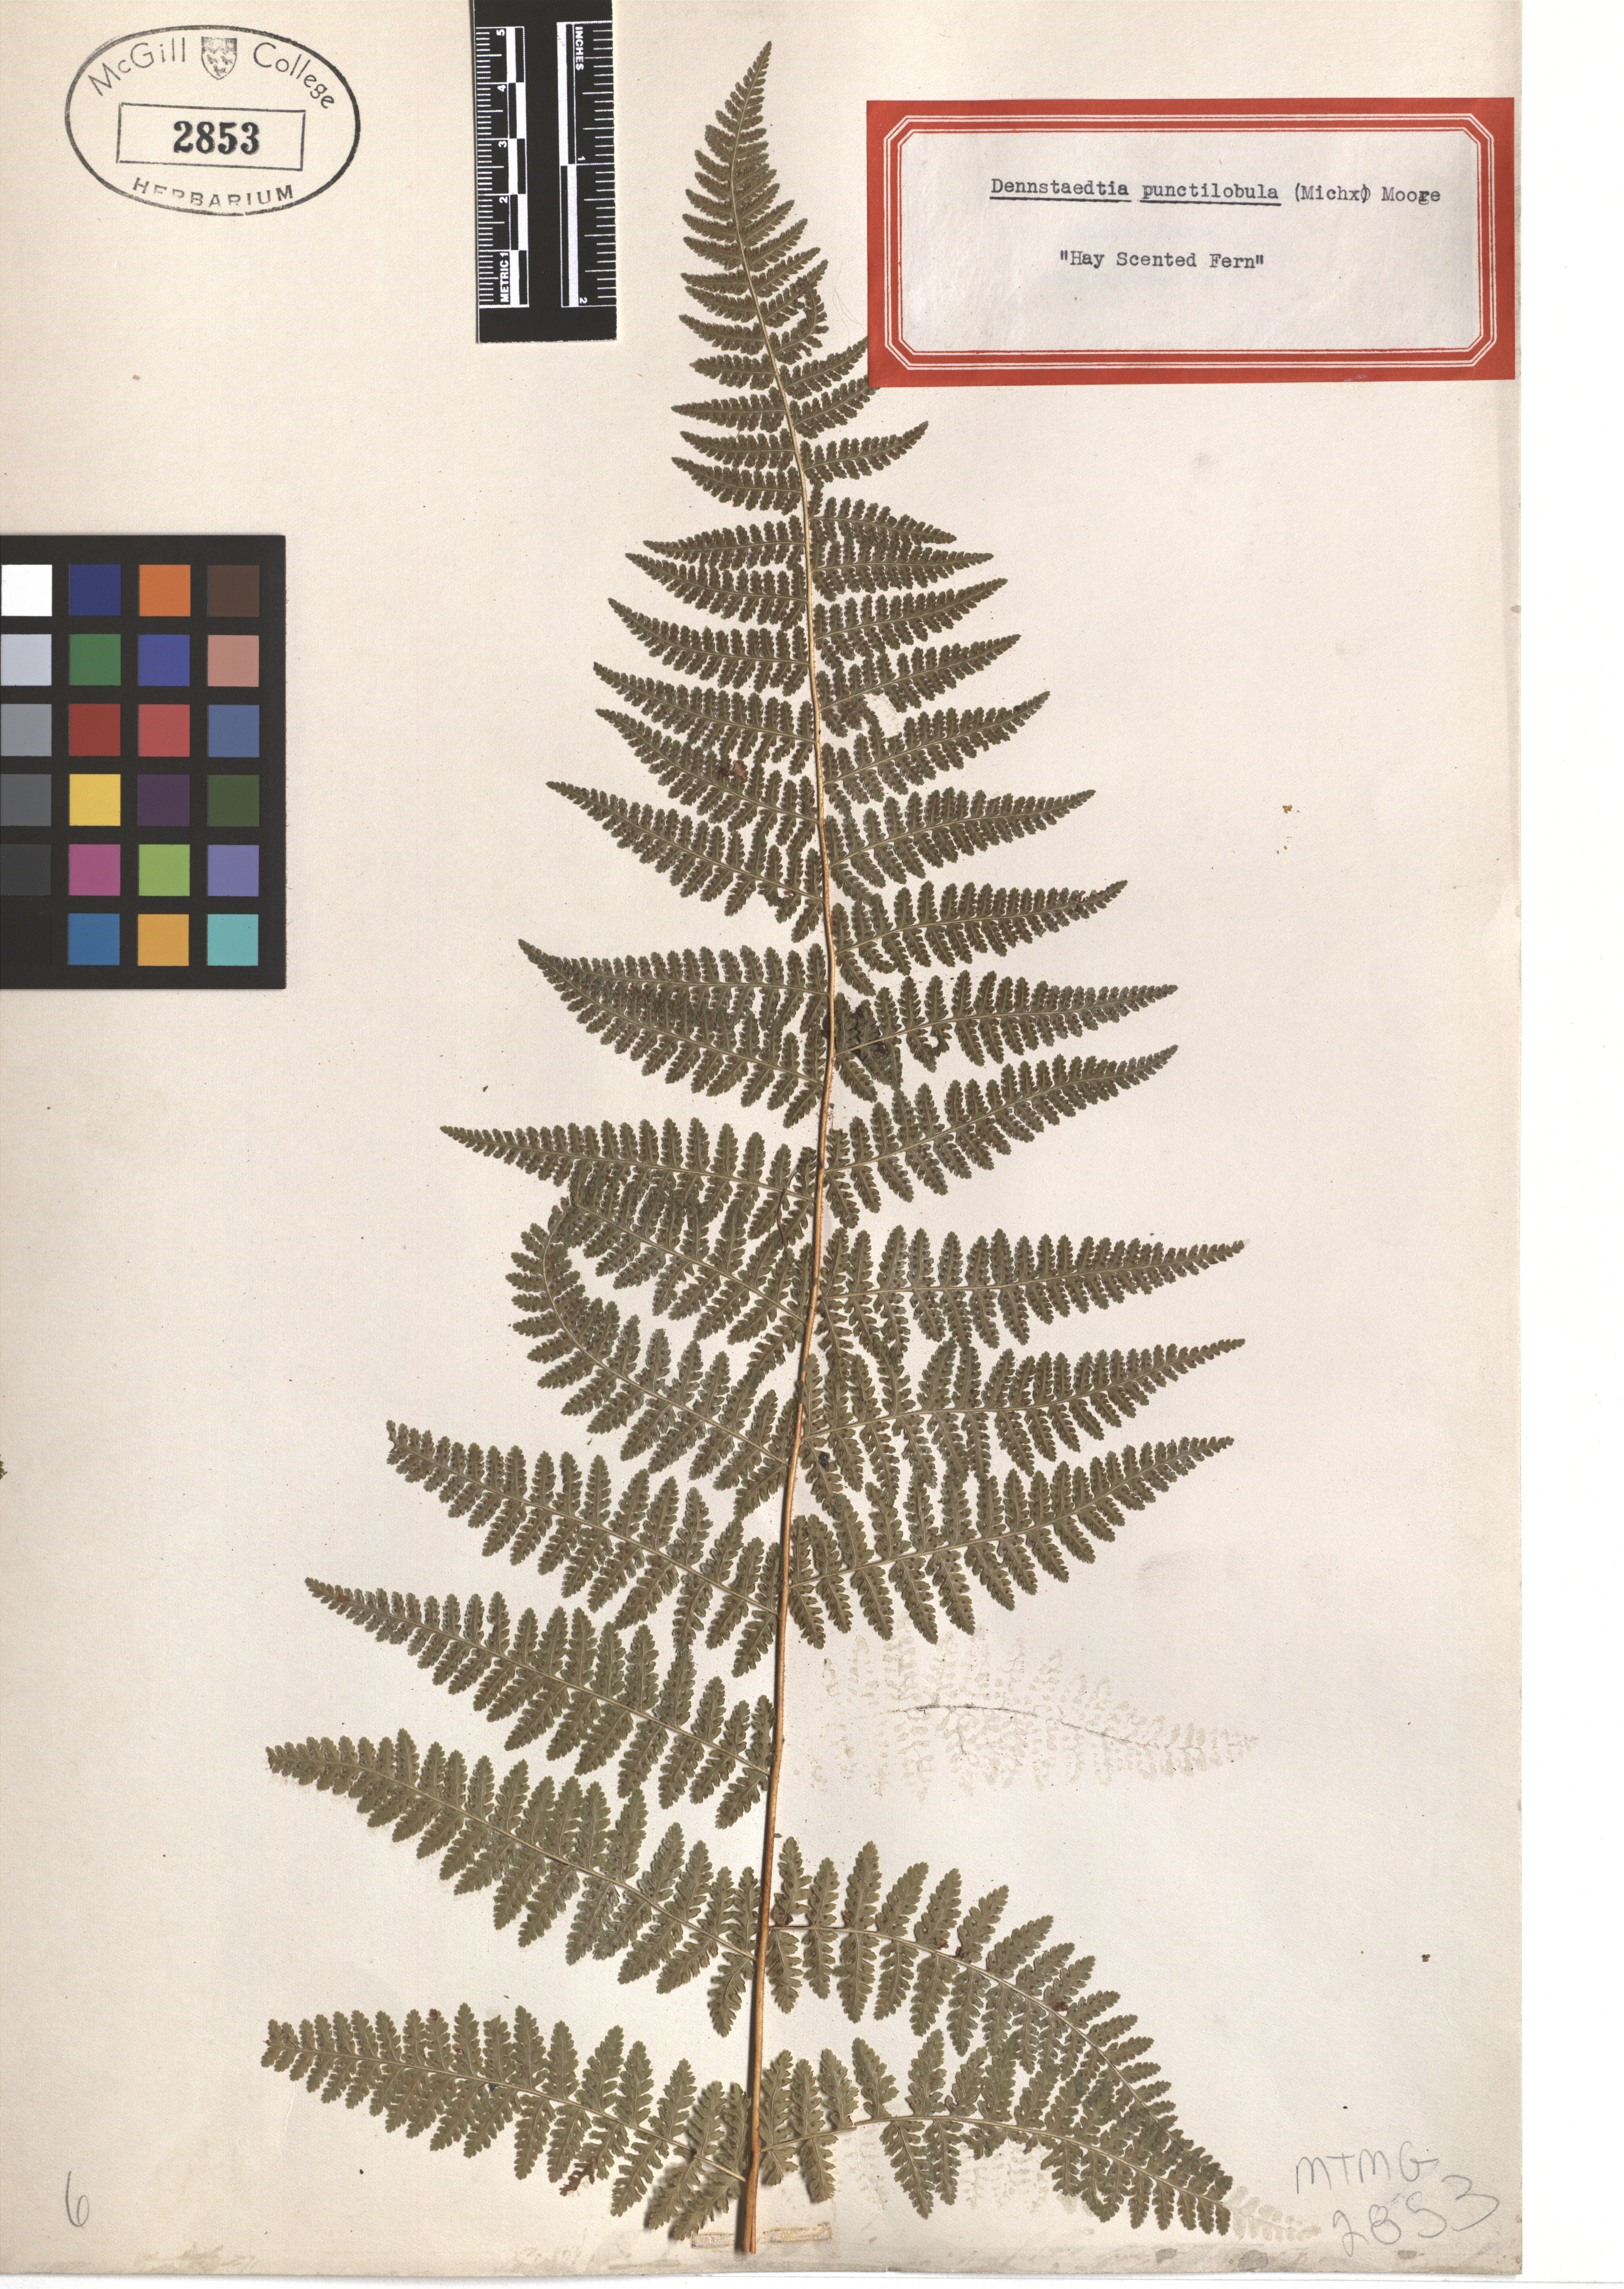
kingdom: Plantae
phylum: Tracheophyta
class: Polypodiopsida
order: Polypodiales
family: Dennstaedtiaceae
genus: Sitobolium
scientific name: Sitobolium punctilobum
